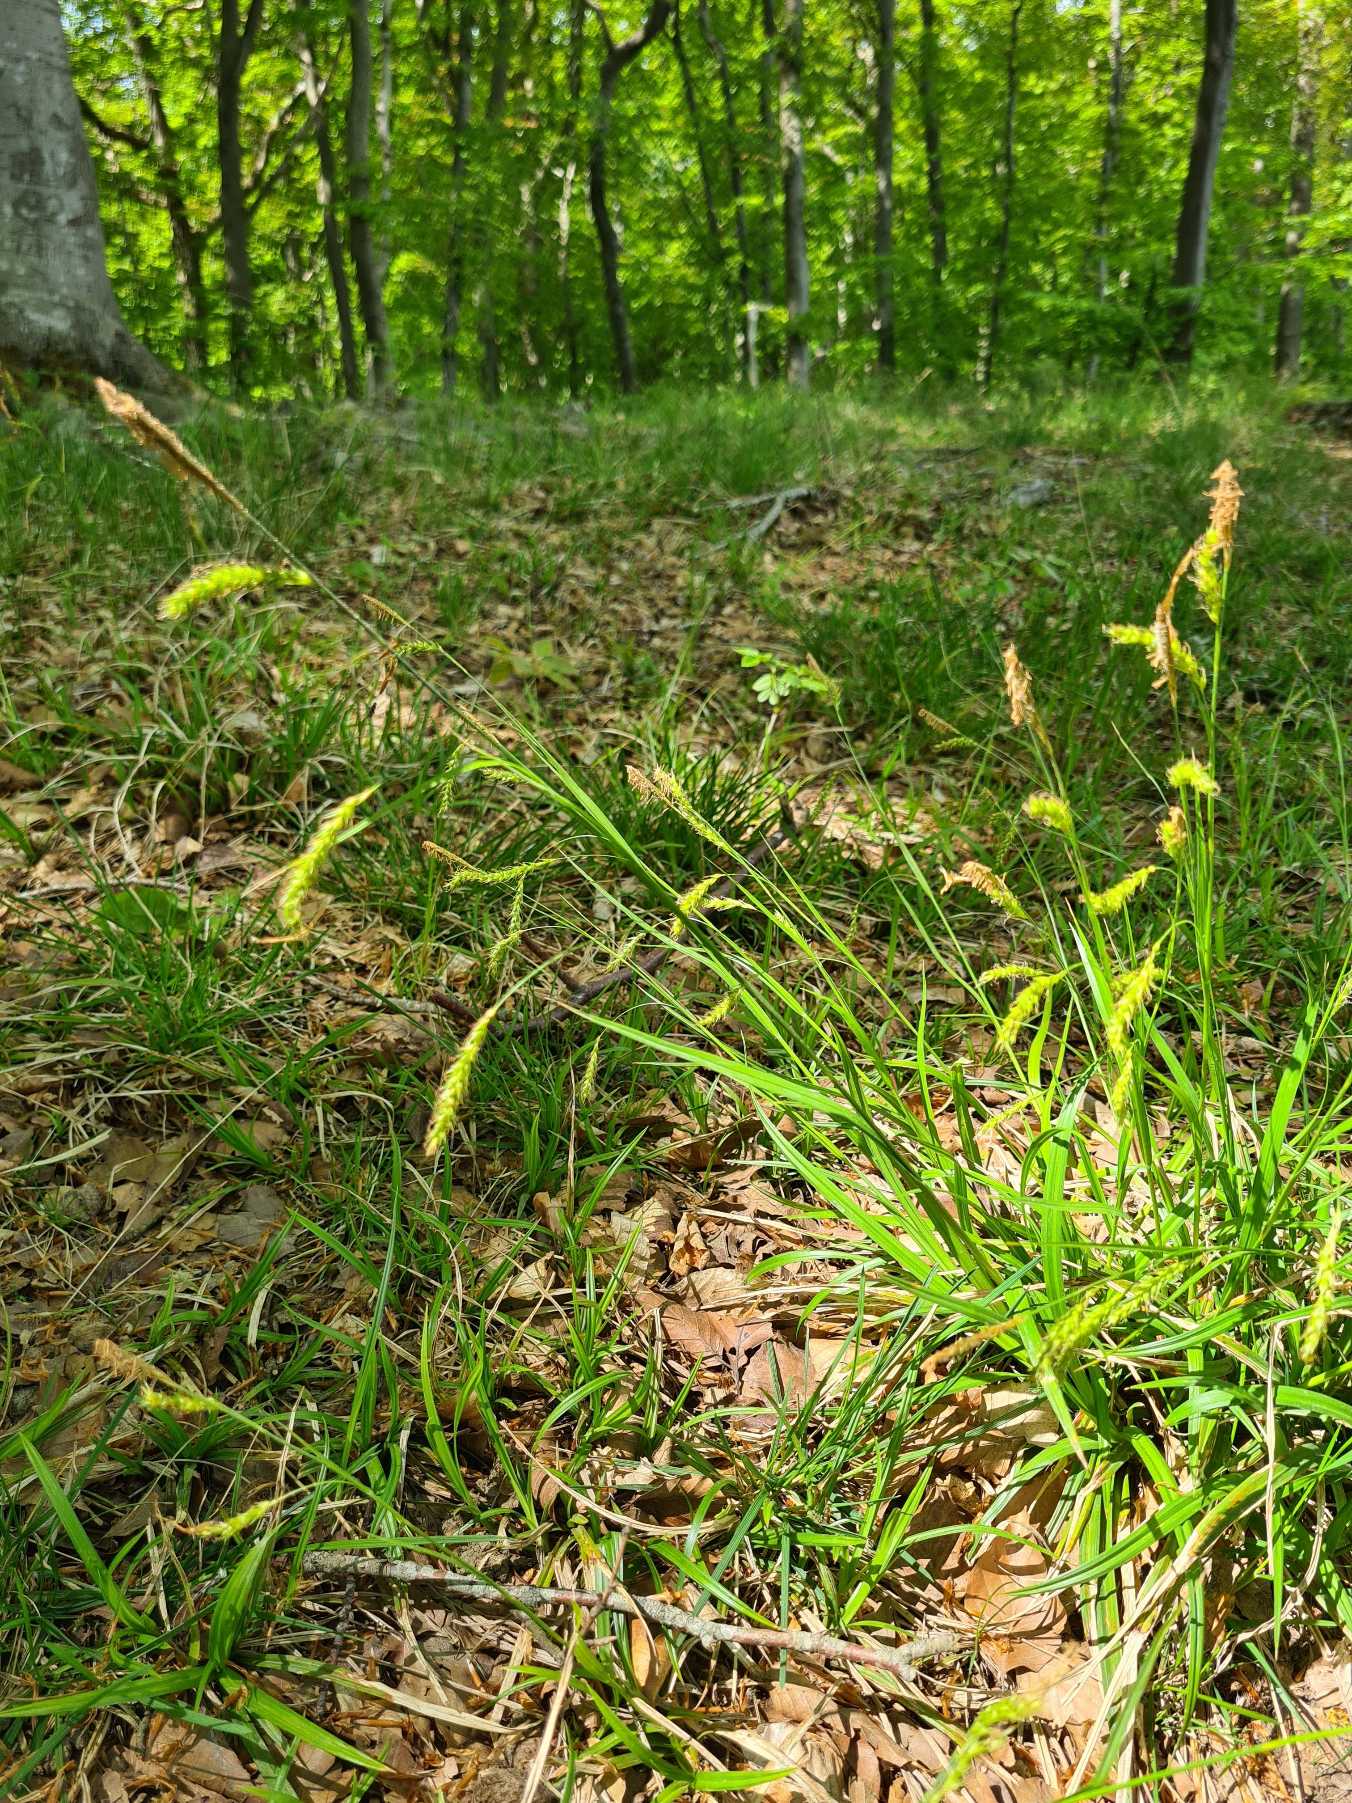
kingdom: Plantae
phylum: Tracheophyta
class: Liliopsida
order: Poales
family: Cyperaceae
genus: Carex
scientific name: Carex sylvatica
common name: Skov-star
